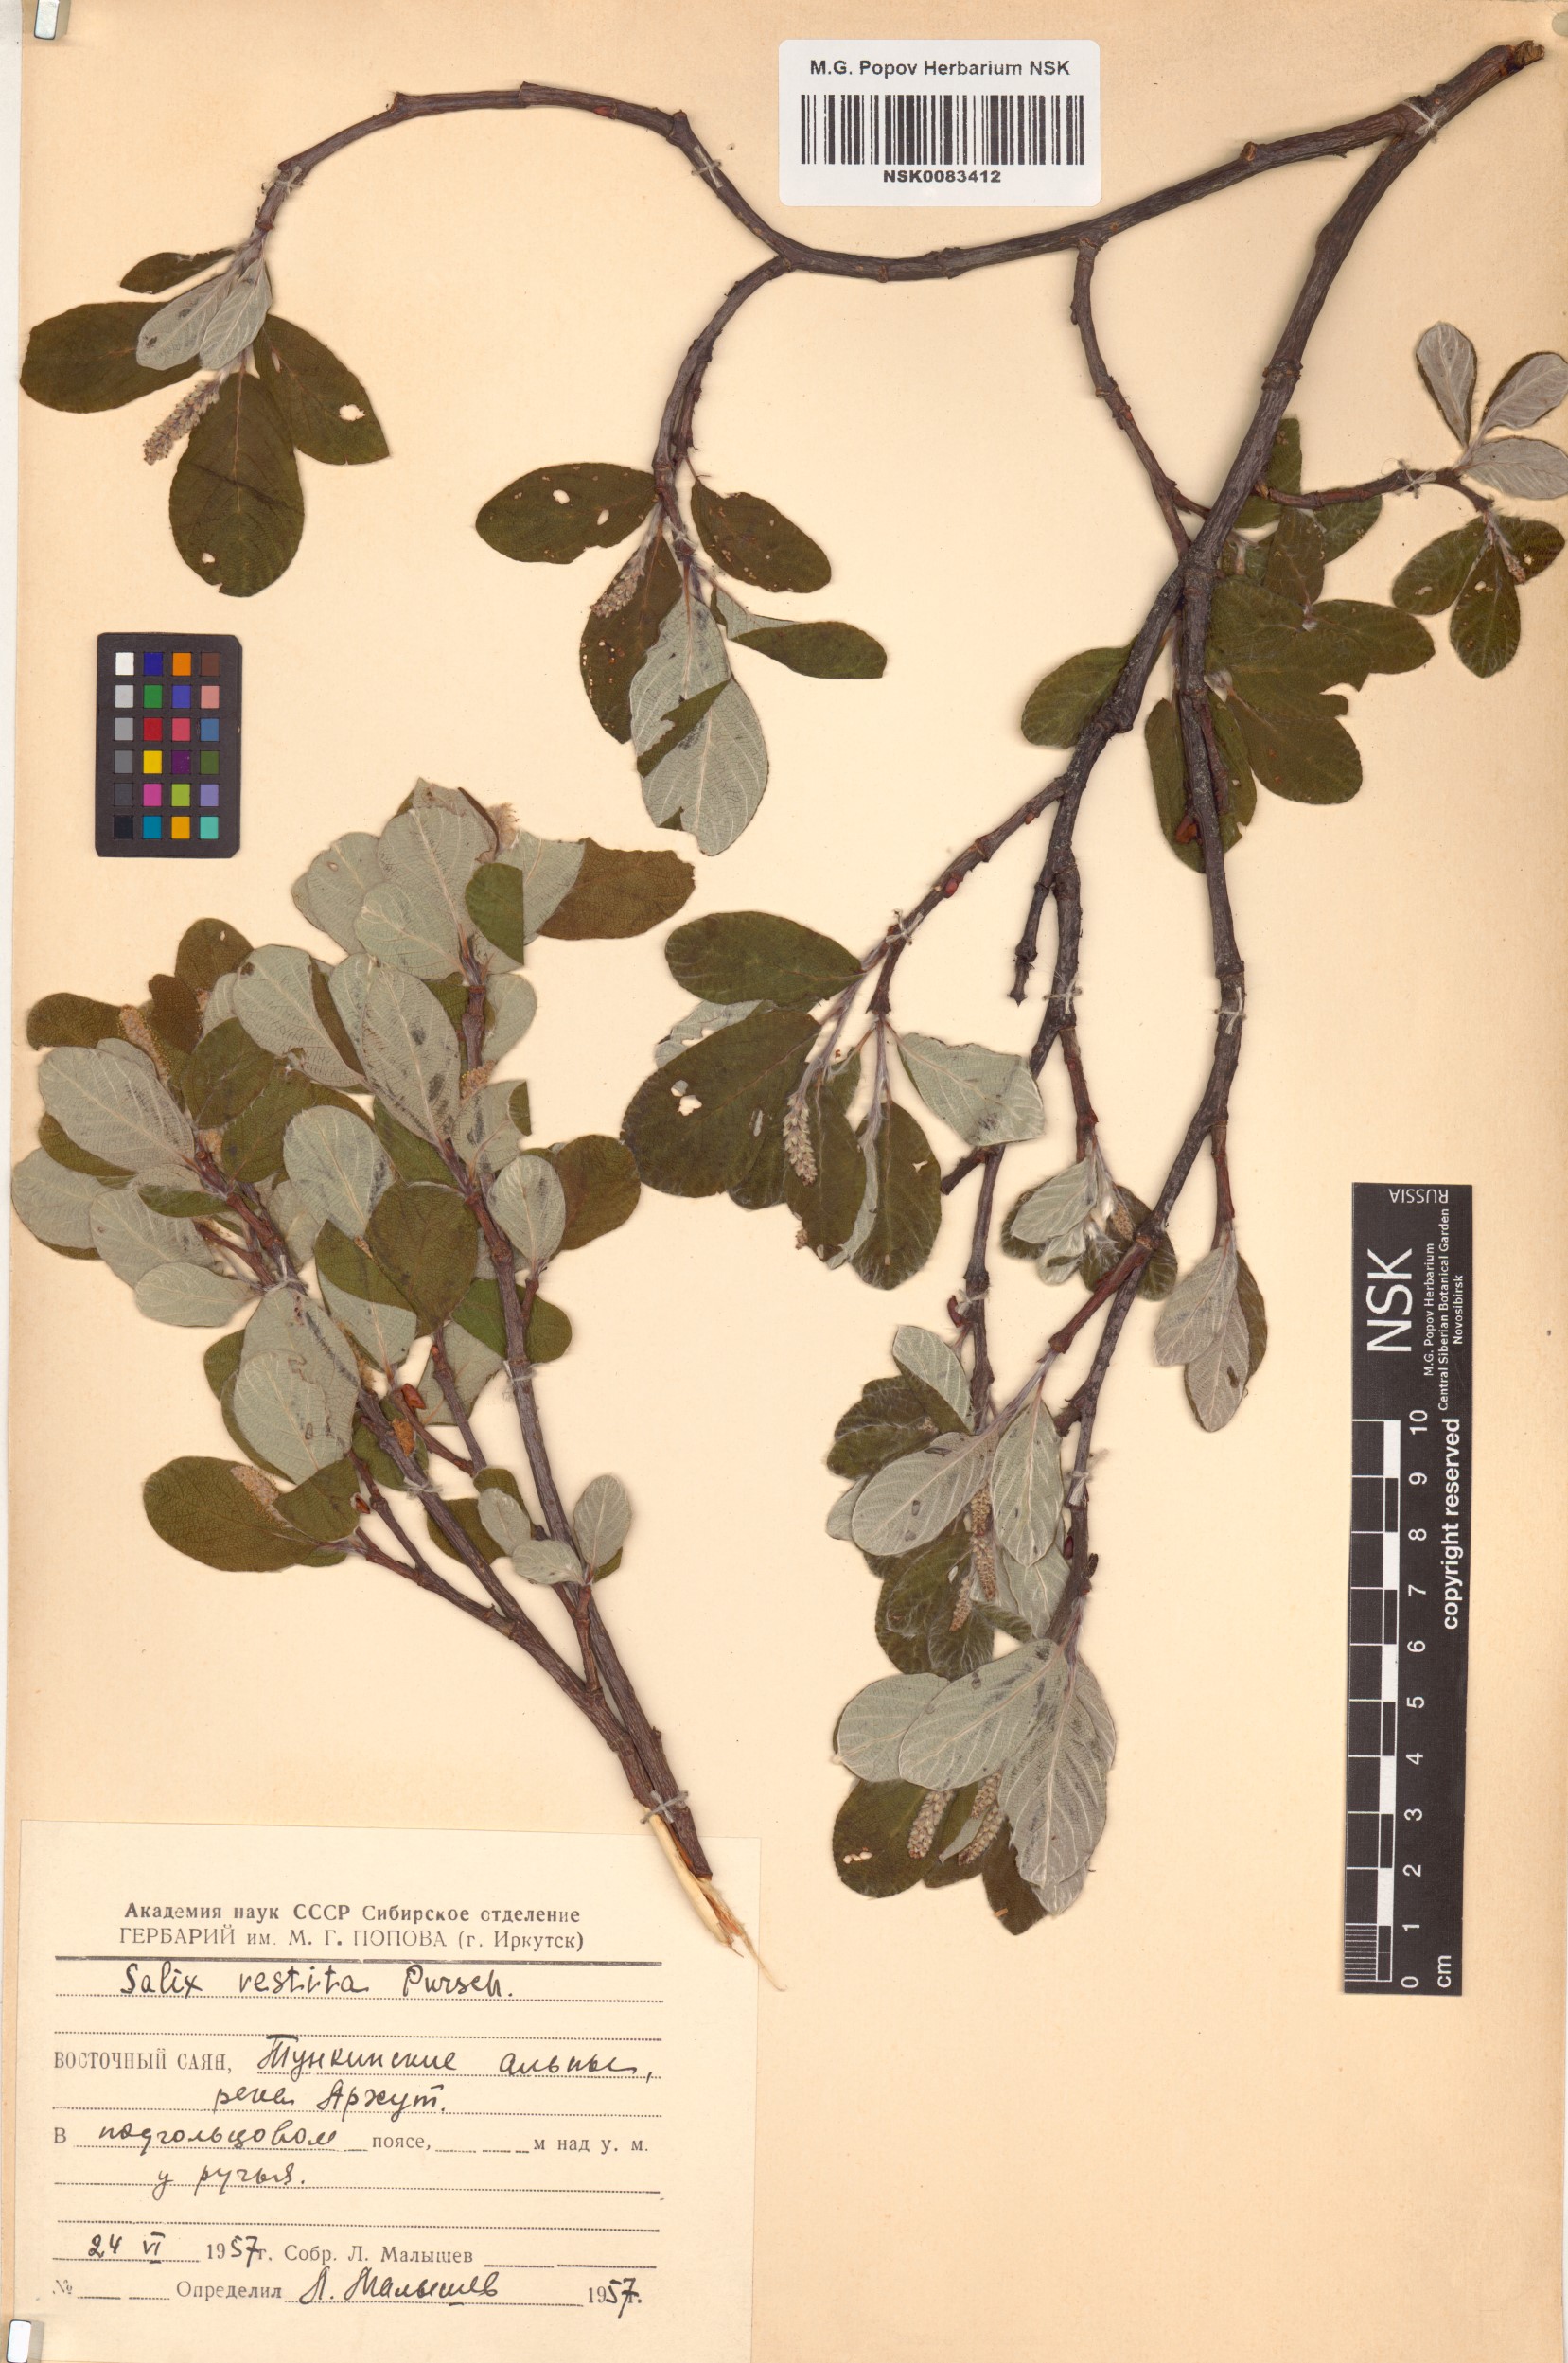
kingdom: Plantae
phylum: Tracheophyta
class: Magnoliopsida
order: Malpighiales
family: Salicaceae
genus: Salix
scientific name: Salix vestita
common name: Hairy willow
